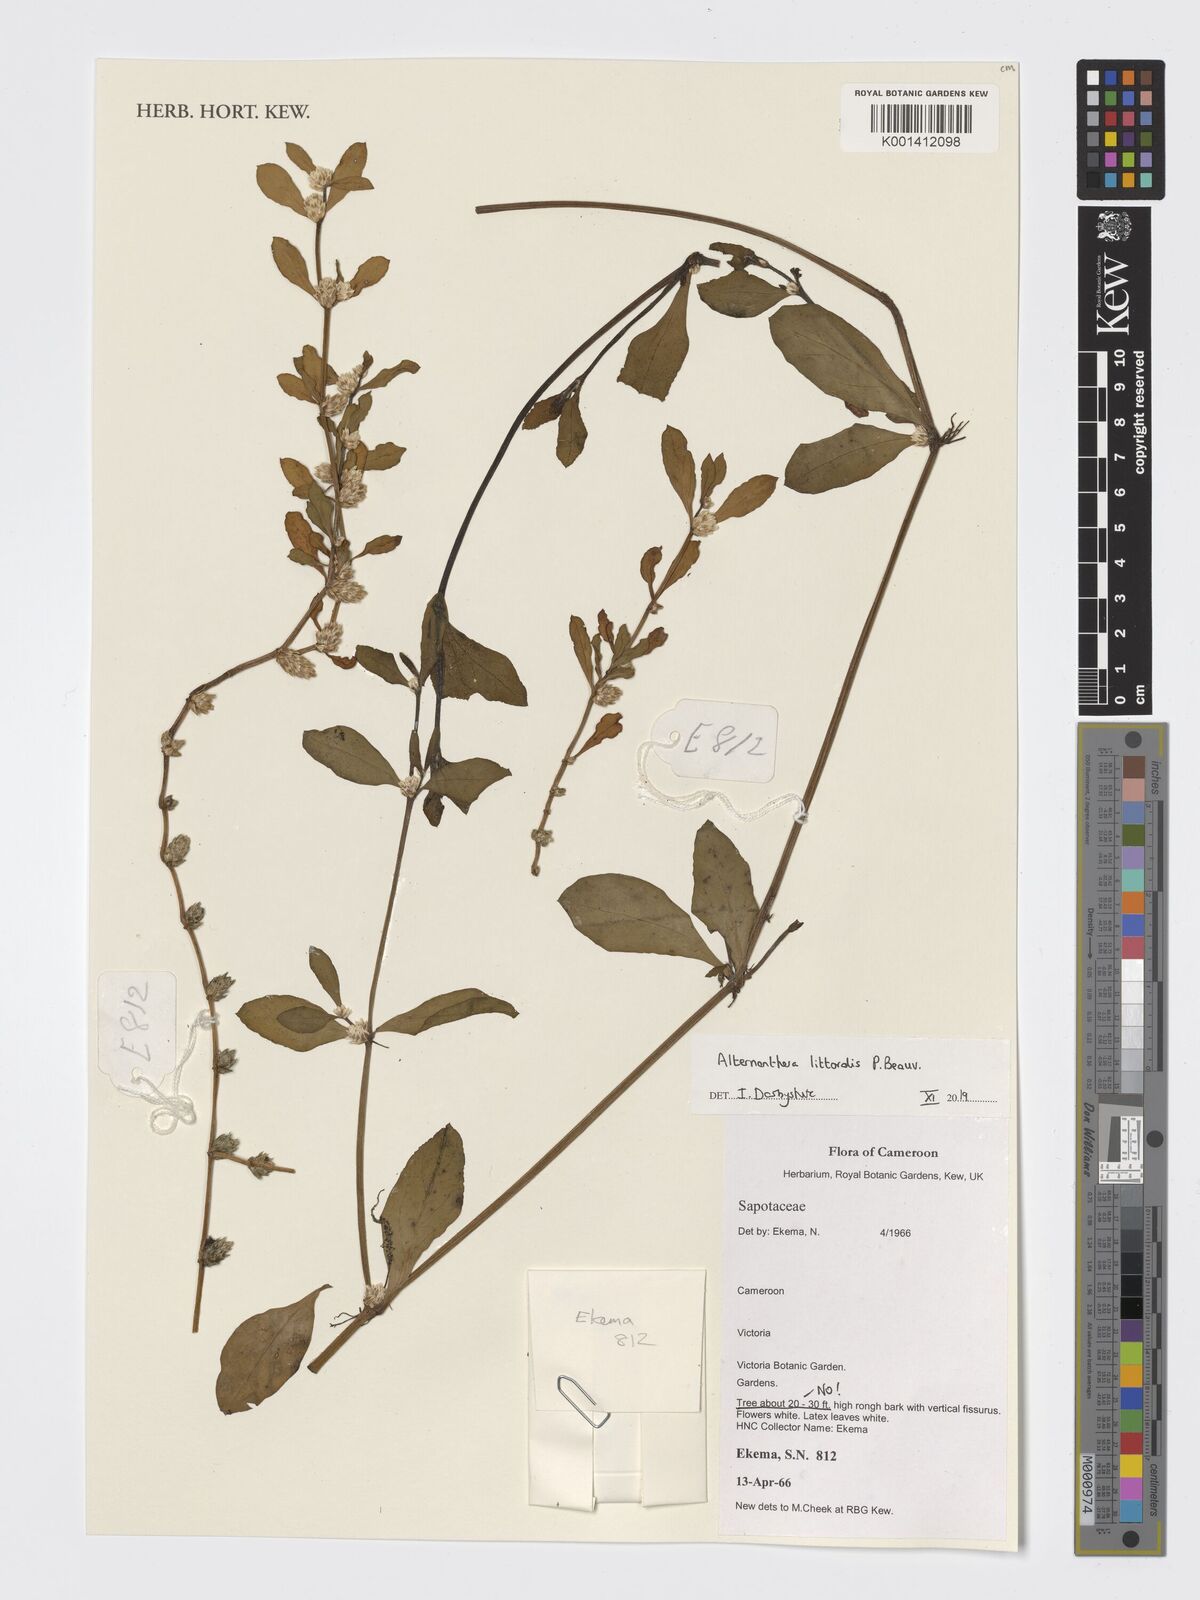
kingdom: Plantae
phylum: Tracheophyta
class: Magnoliopsida
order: Caryophyllales
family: Amaranthaceae
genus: Alternanthera
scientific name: Alternanthera littoralis
